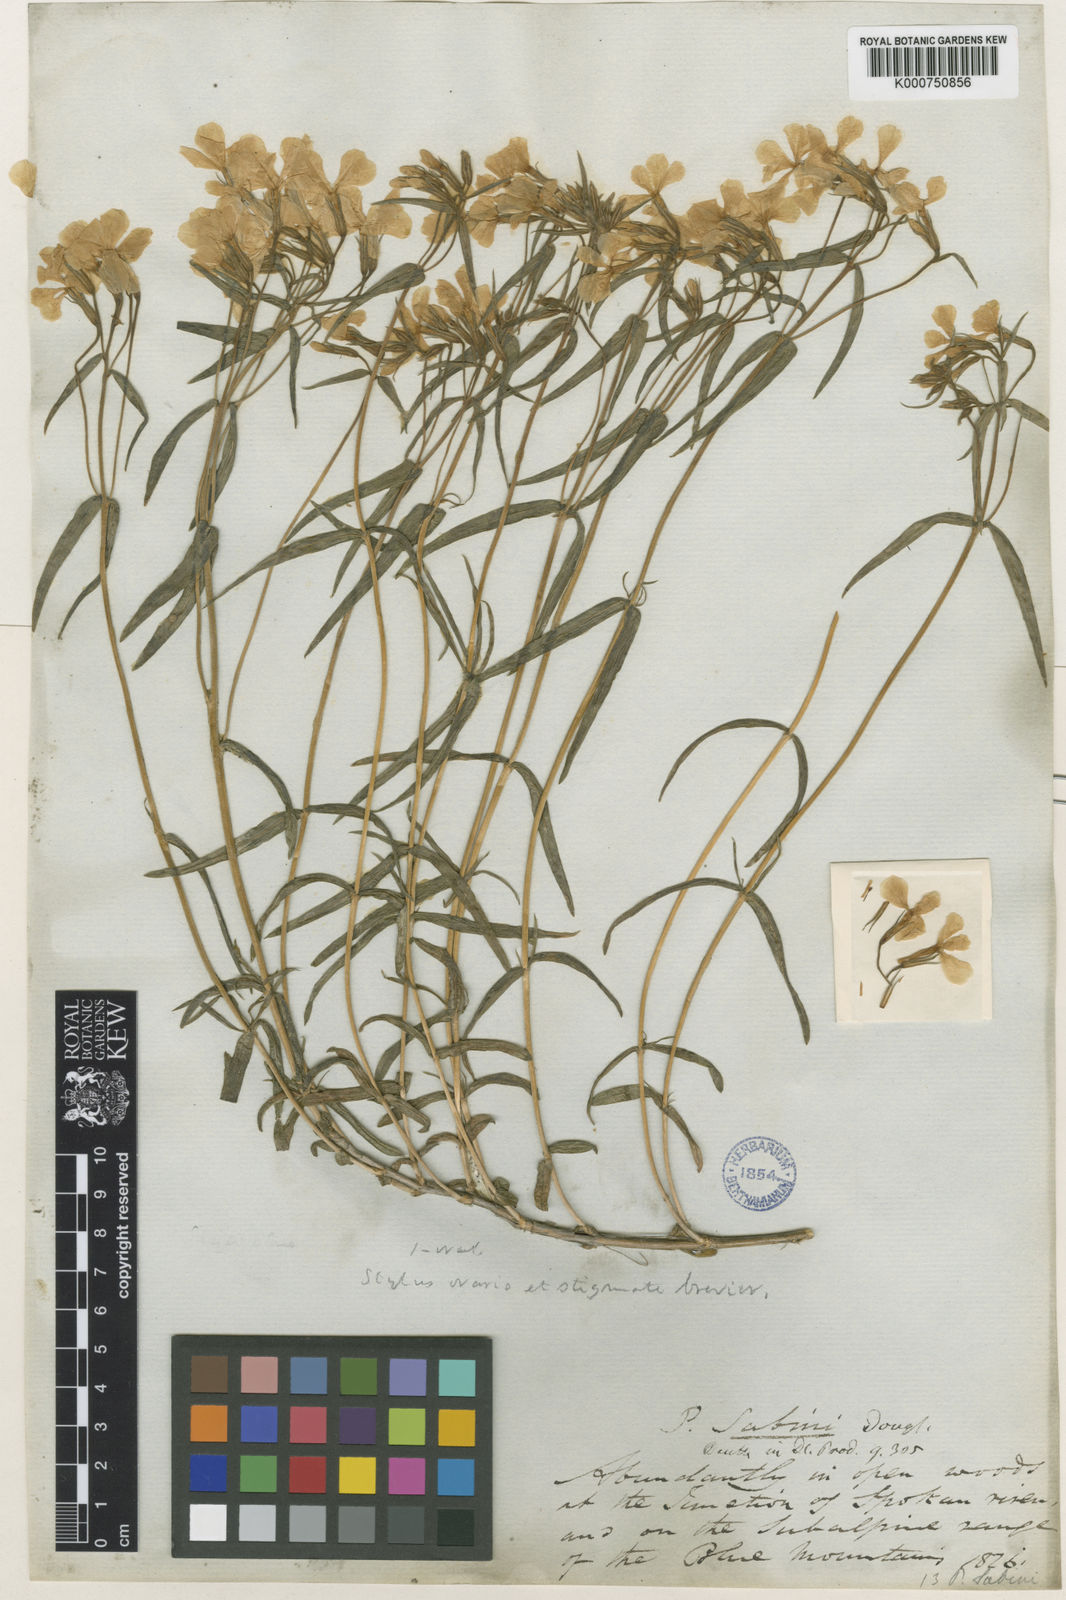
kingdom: Plantae
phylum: Tracheophyta
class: Magnoliopsida
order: Ericales
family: Polemoniaceae
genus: Phlox
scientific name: Phlox speciosa
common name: Bush phlox
